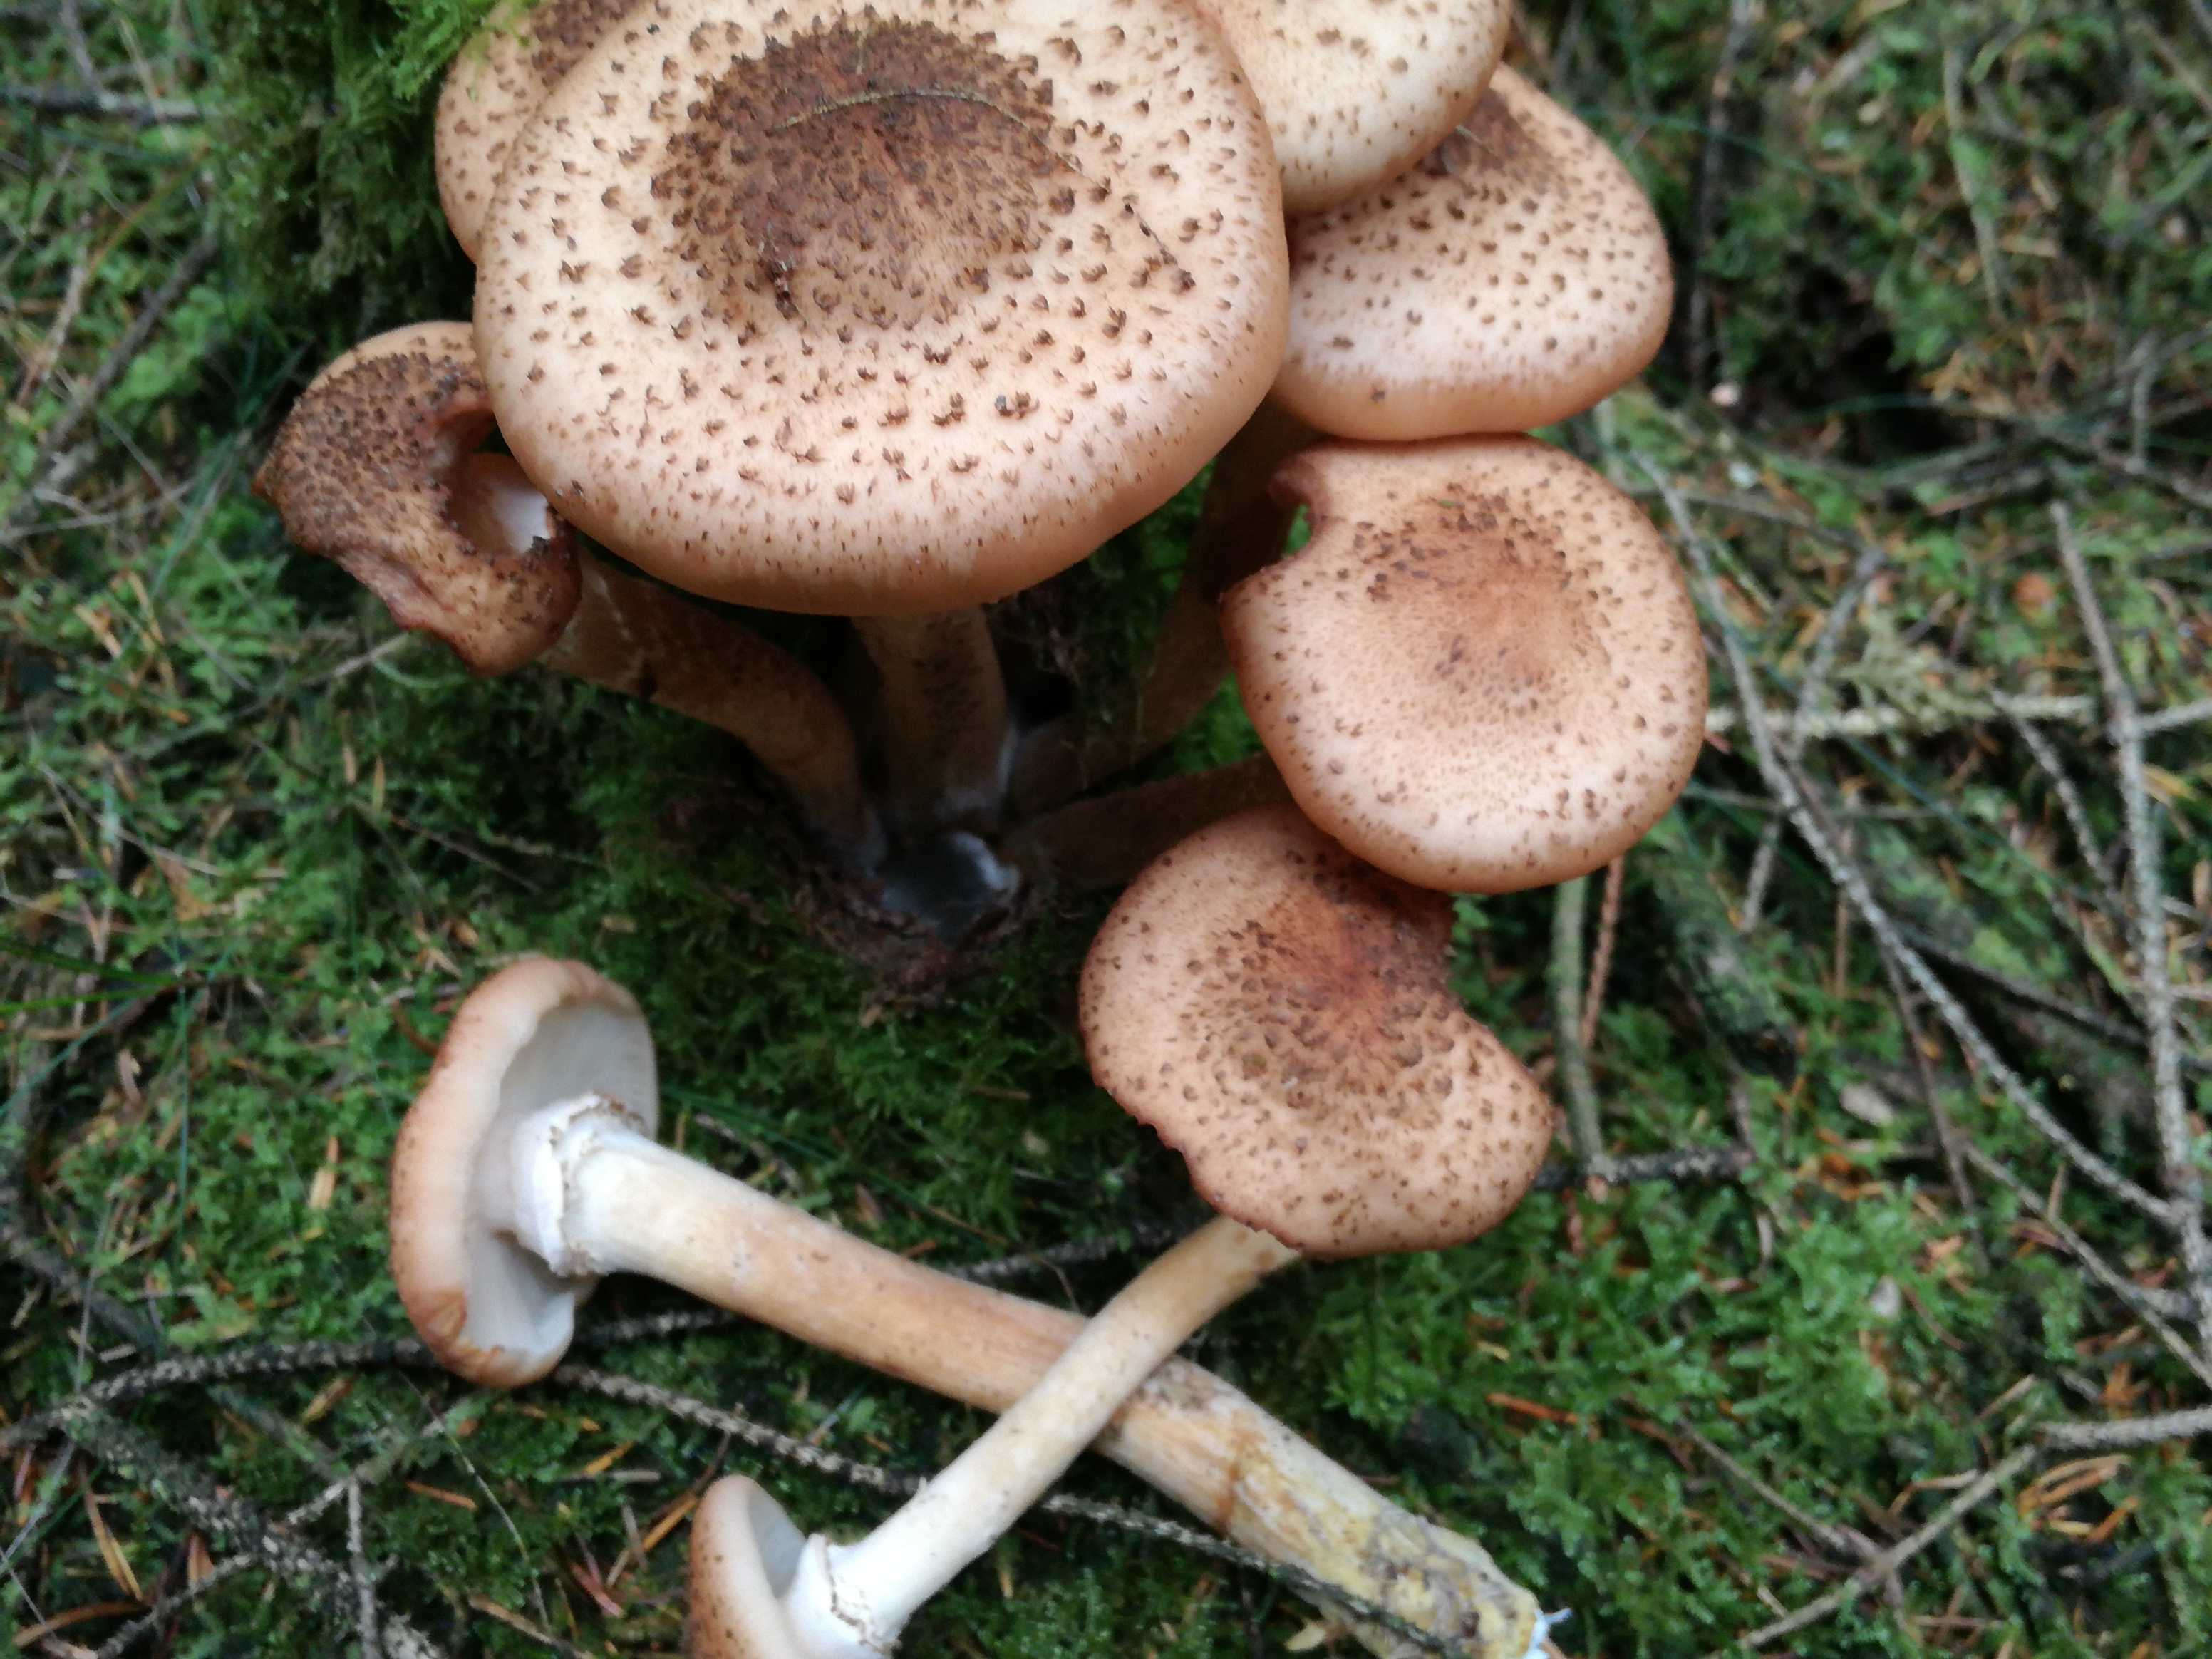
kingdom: Fungi
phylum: Basidiomycota
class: Agaricomycetes
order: Agaricales
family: Physalacriaceae
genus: Armillaria
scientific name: Armillaria ostoyae
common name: mørk honningsvamp
